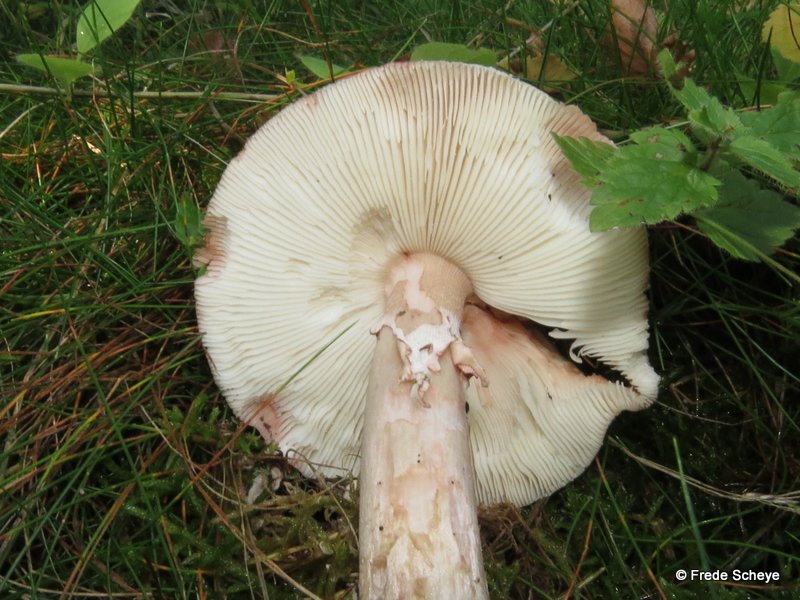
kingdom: Fungi
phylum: Basidiomycota
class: Agaricomycetes
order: Agaricales
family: Amanitaceae
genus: Amanita
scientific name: Amanita rubescens
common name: rødmende fluesvamp
